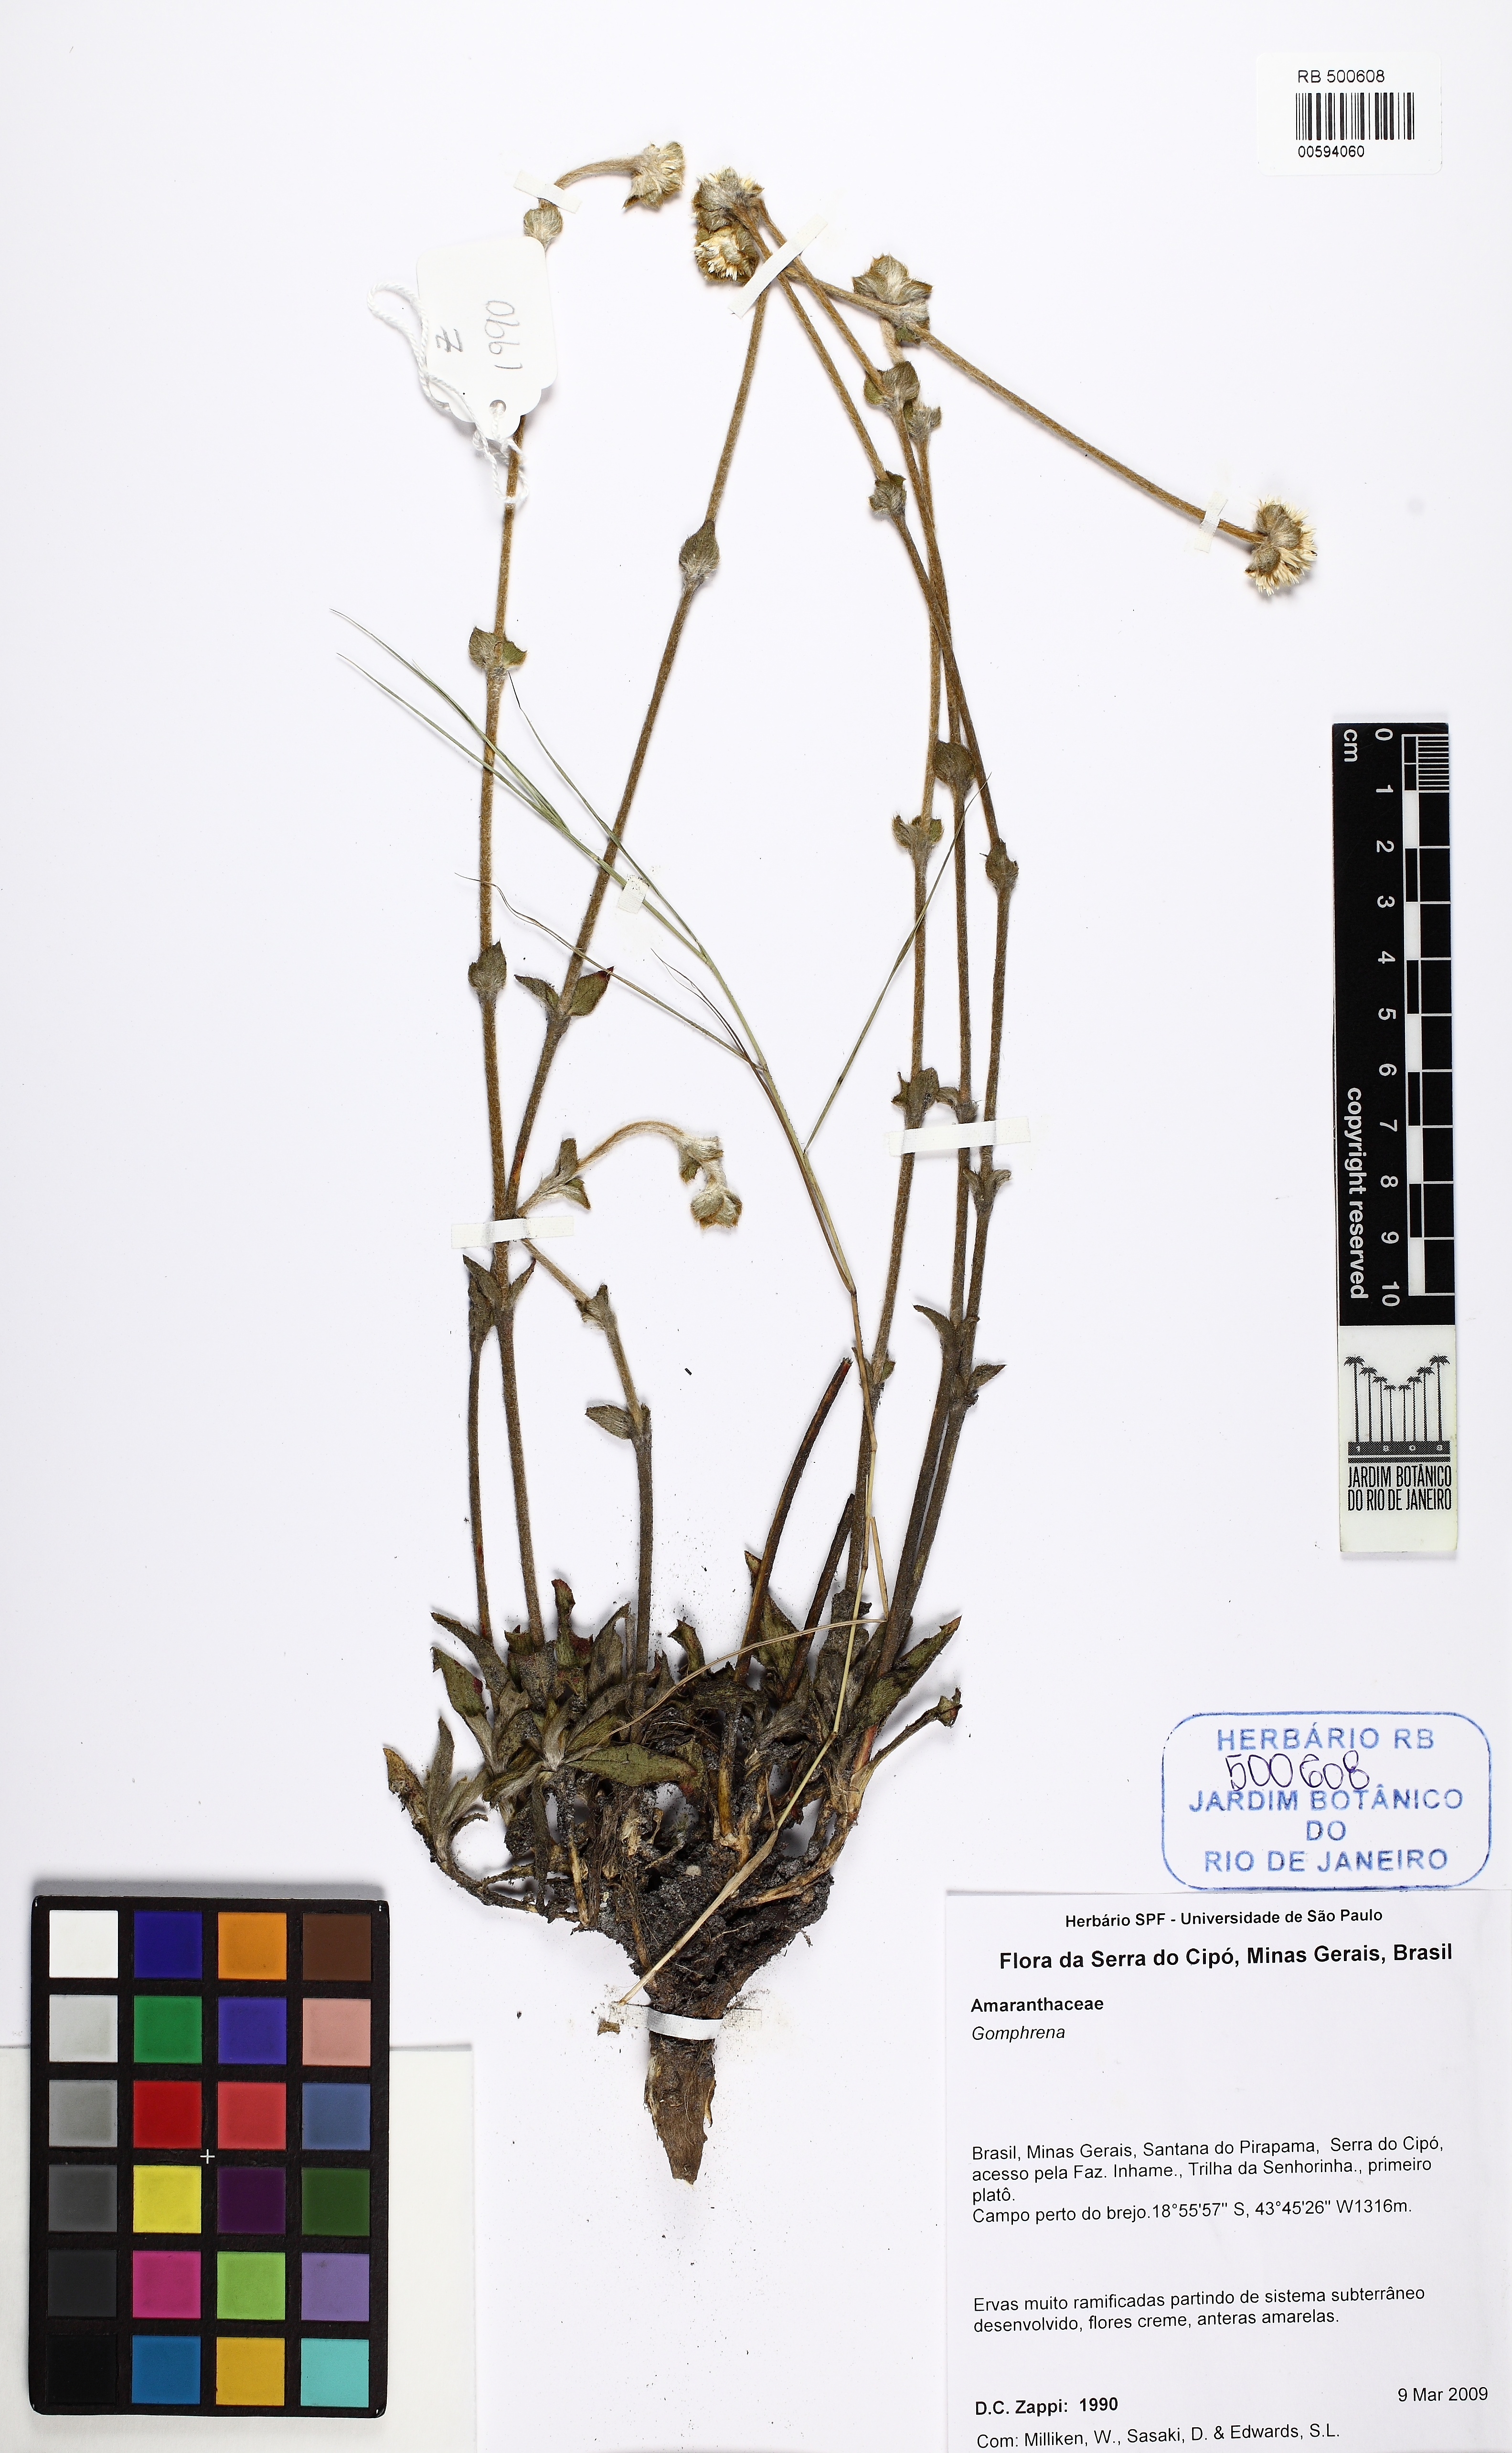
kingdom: Plantae
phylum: Tracheophyta
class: Magnoliopsida
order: Caryophyllales
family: Amaranthaceae
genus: Gomphrena
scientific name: Gomphrena
